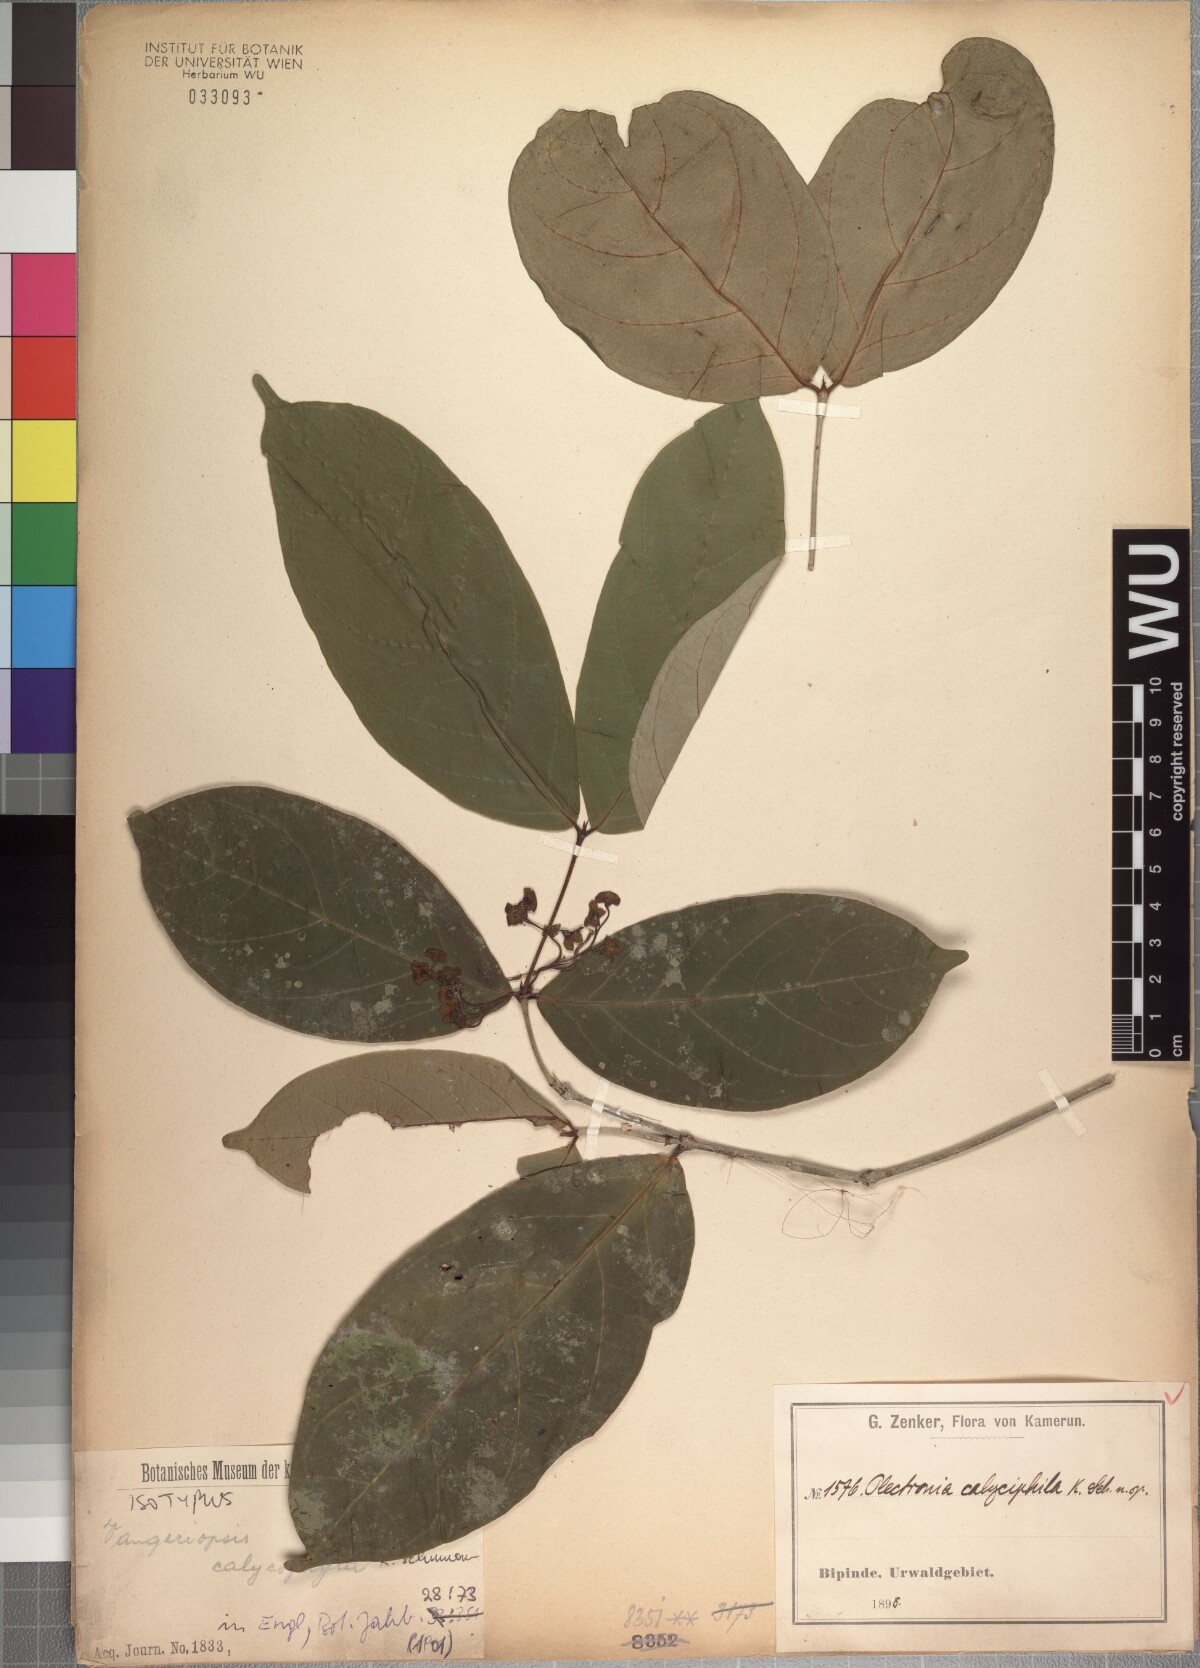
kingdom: Plantae
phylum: Tracheophyta
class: Magnoliopsida
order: Gentianales
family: Rubiaceae
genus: Vangueriella
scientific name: Vangueriella laxiflora
